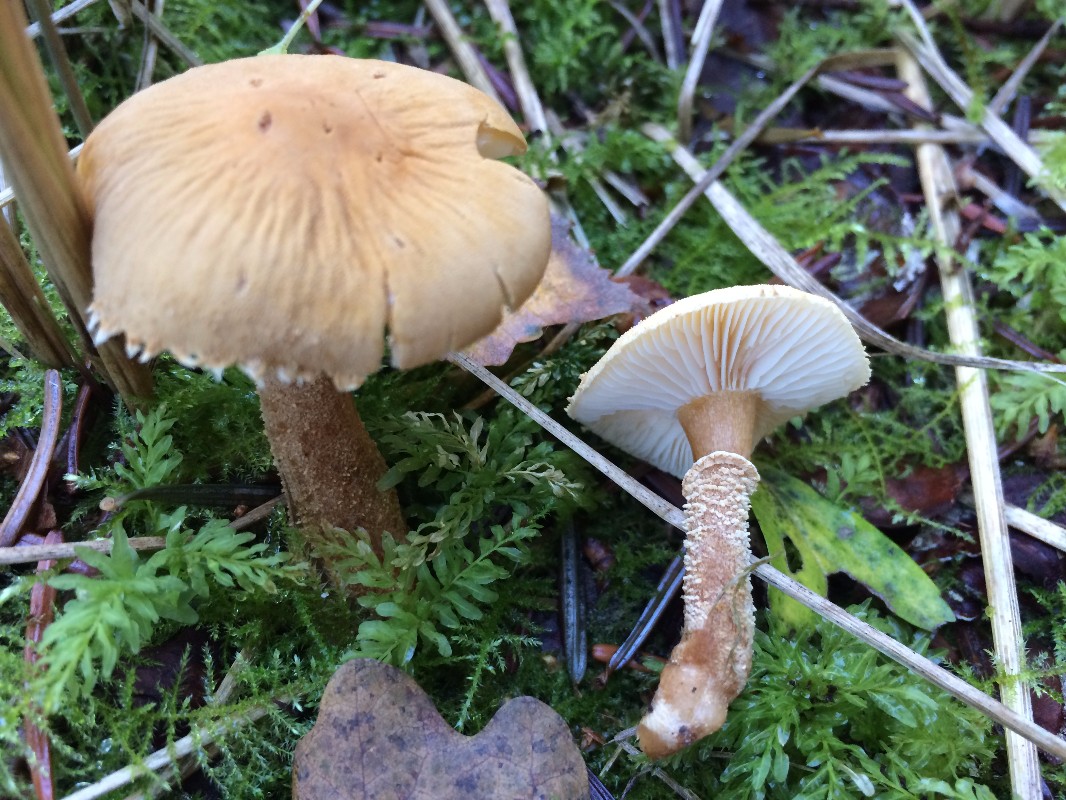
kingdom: Fungi
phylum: Basidiomycota
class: Agaricomycetes
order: Agaricales
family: Tricholomataceae
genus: Cystoderma
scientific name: Cystoderma amianthinum
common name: okkergul grynhat
